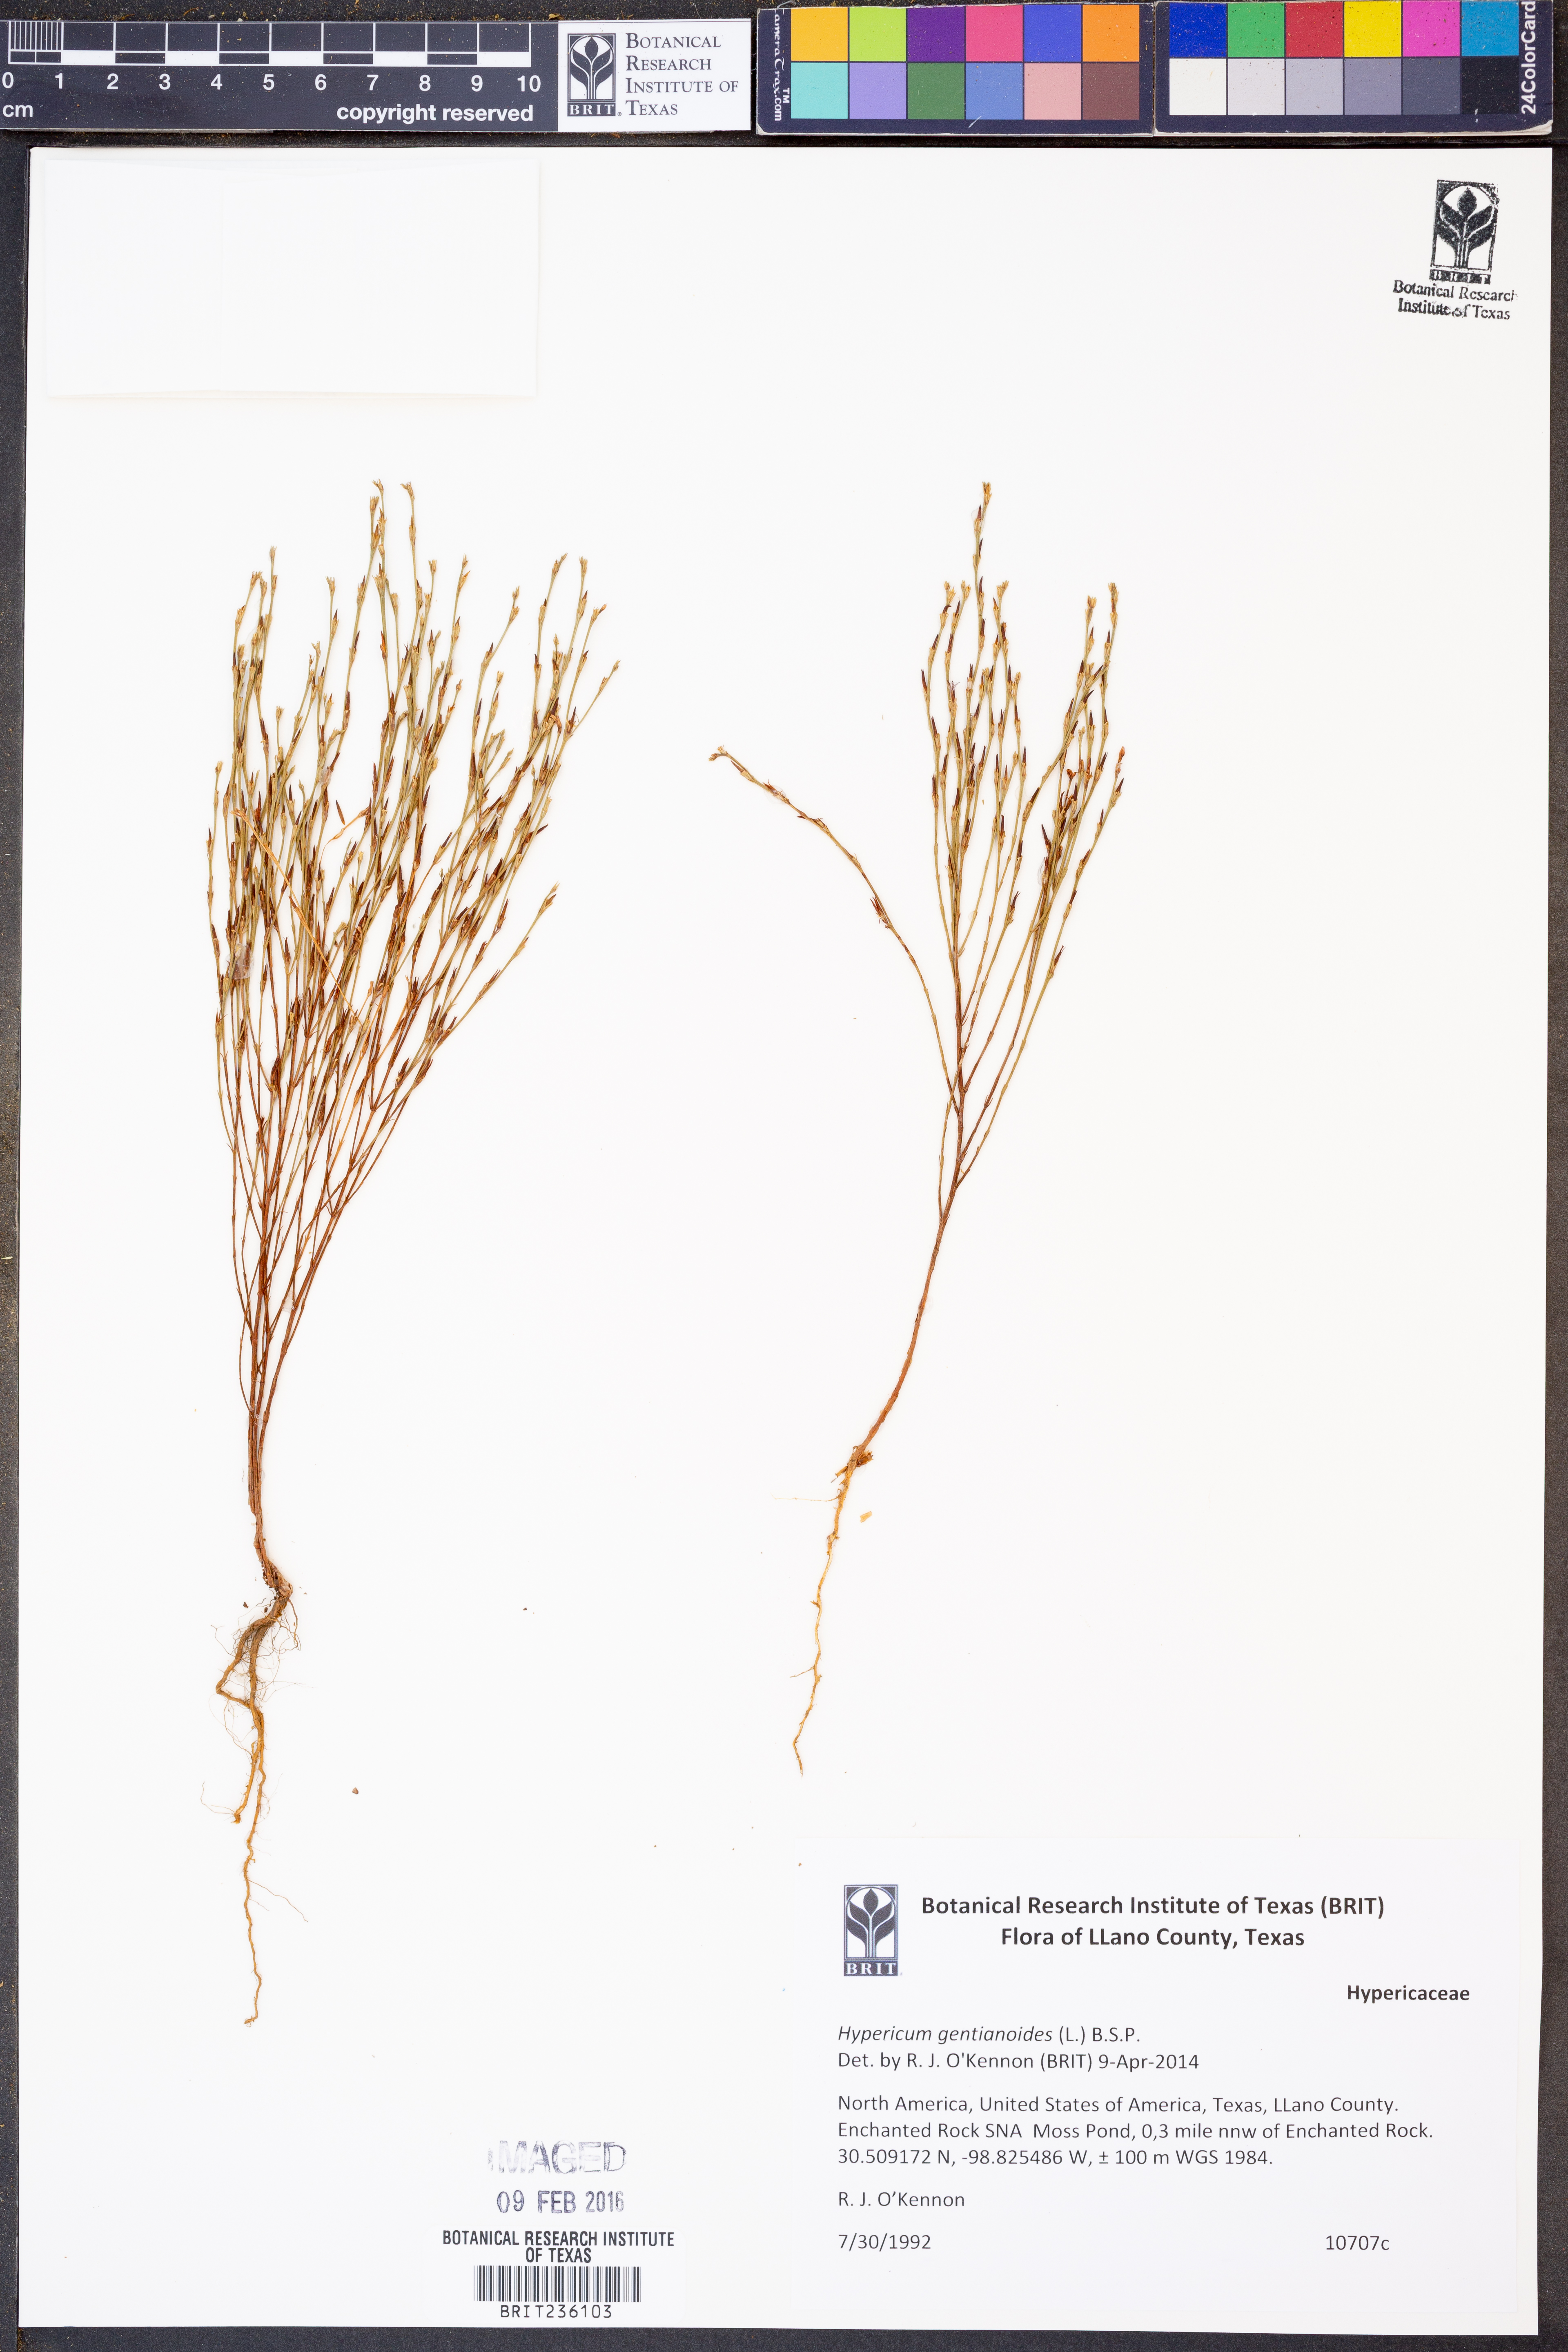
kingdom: Plantae
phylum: Tracheophyta
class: Magnoliopsida
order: Malpighiales
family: Hypericaceae
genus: Hypericum
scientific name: Hypericum gentianoides
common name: Gentian-leaved st. john's-wort
